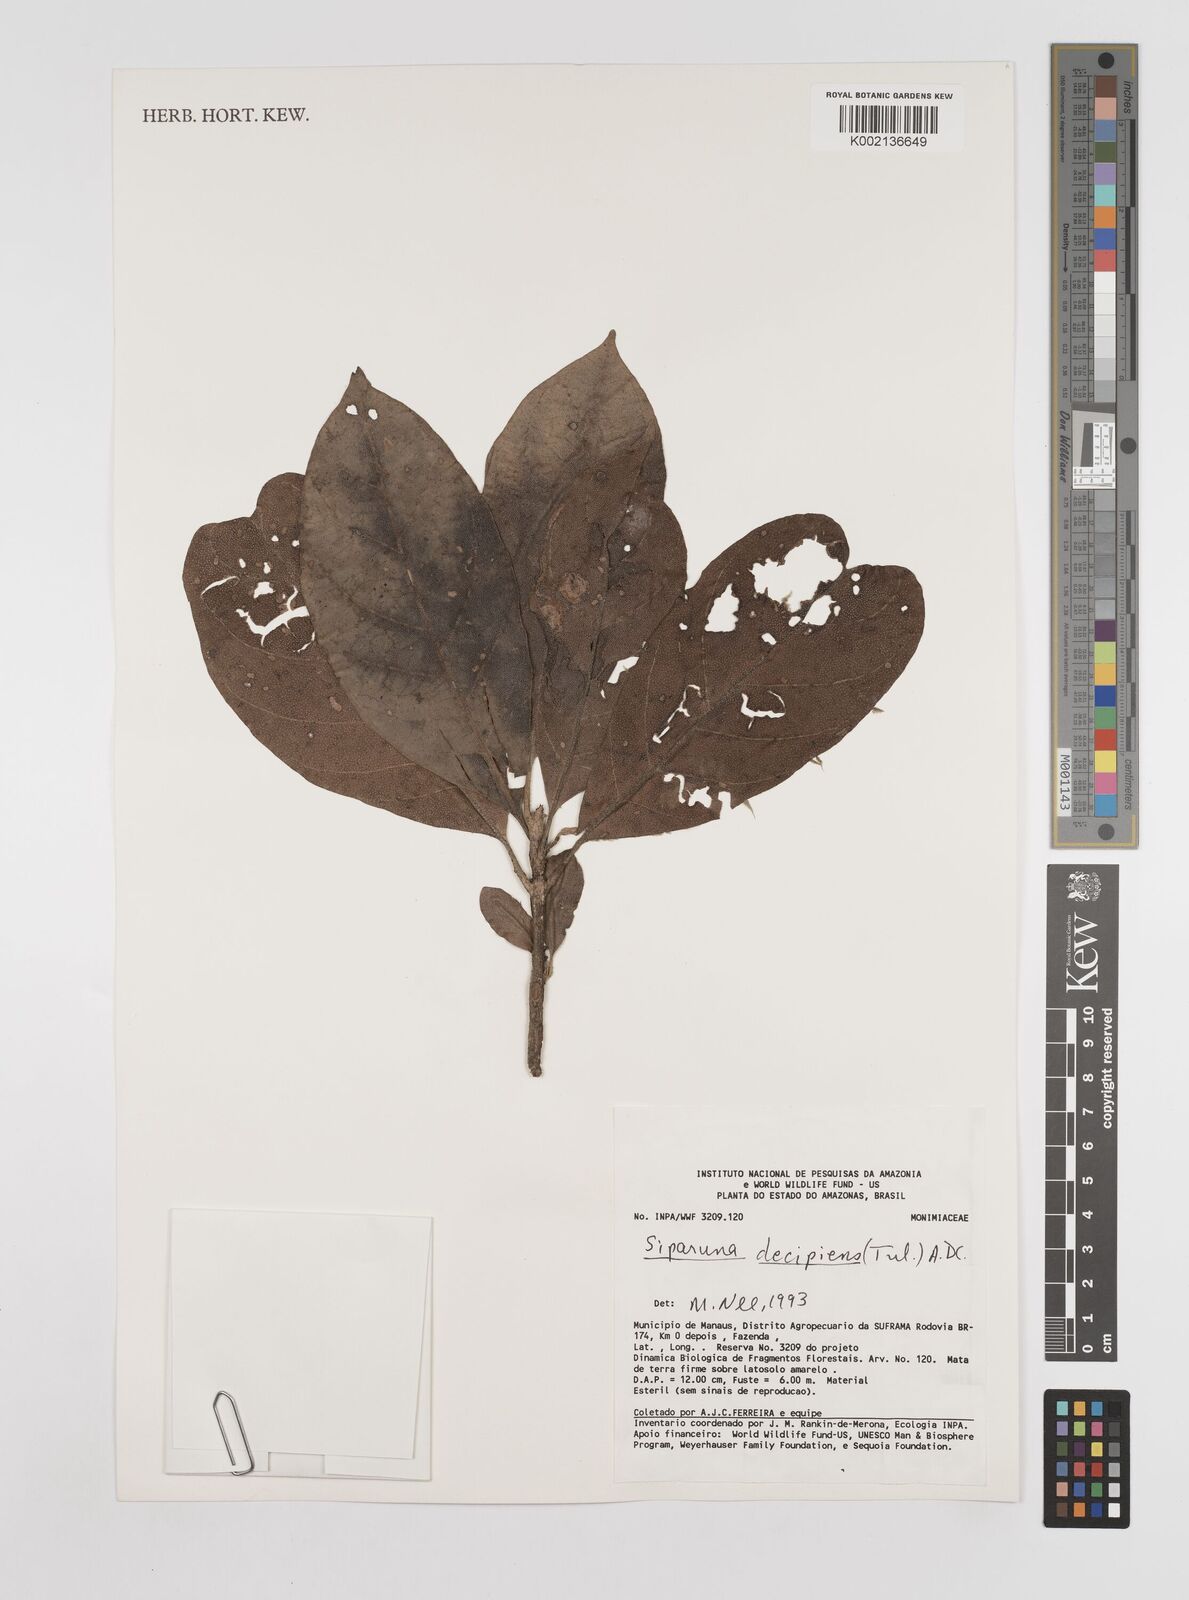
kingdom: Plantae
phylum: Tracheophyta
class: Magnoliopsida
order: Laurales
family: Siparunaceae
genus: Siparuna
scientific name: Siparuna decipiens
